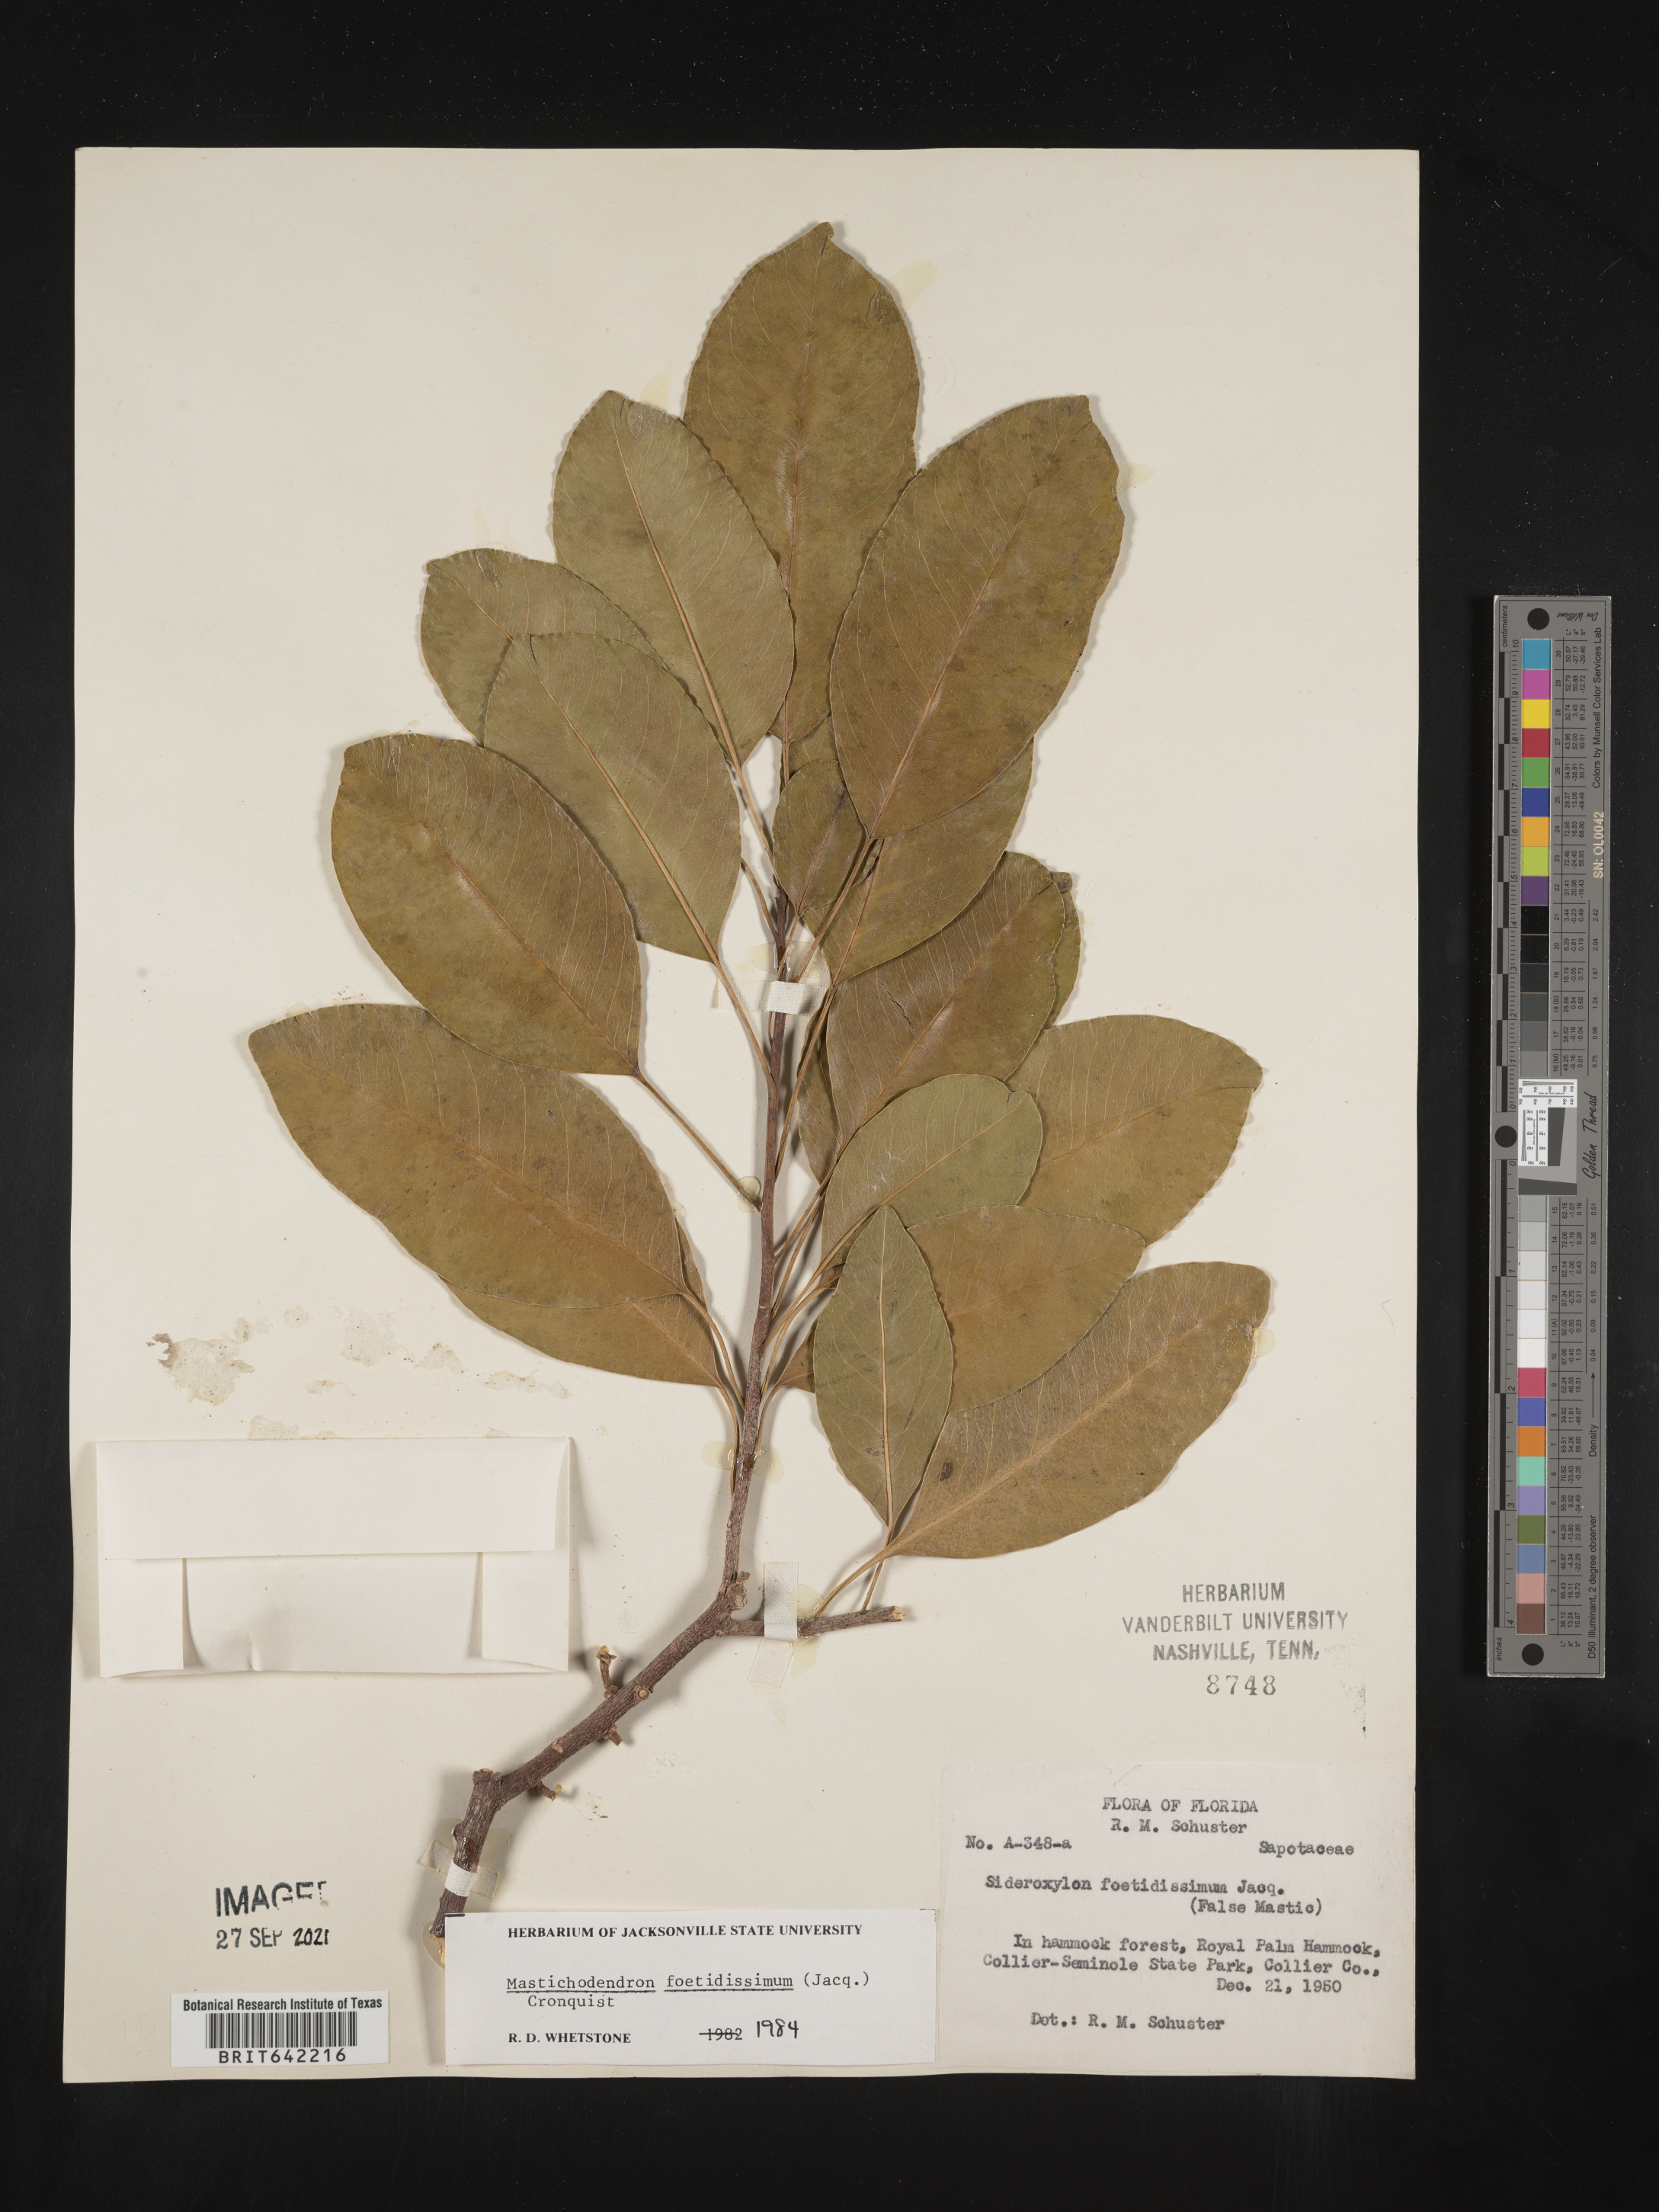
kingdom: Plantae
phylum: Tracheophyta
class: Magnoliopsida
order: Ericales
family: Sapotaceae
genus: Sideroxylon
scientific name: Sideroxylon foetidissimum
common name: Barbados-mastic
